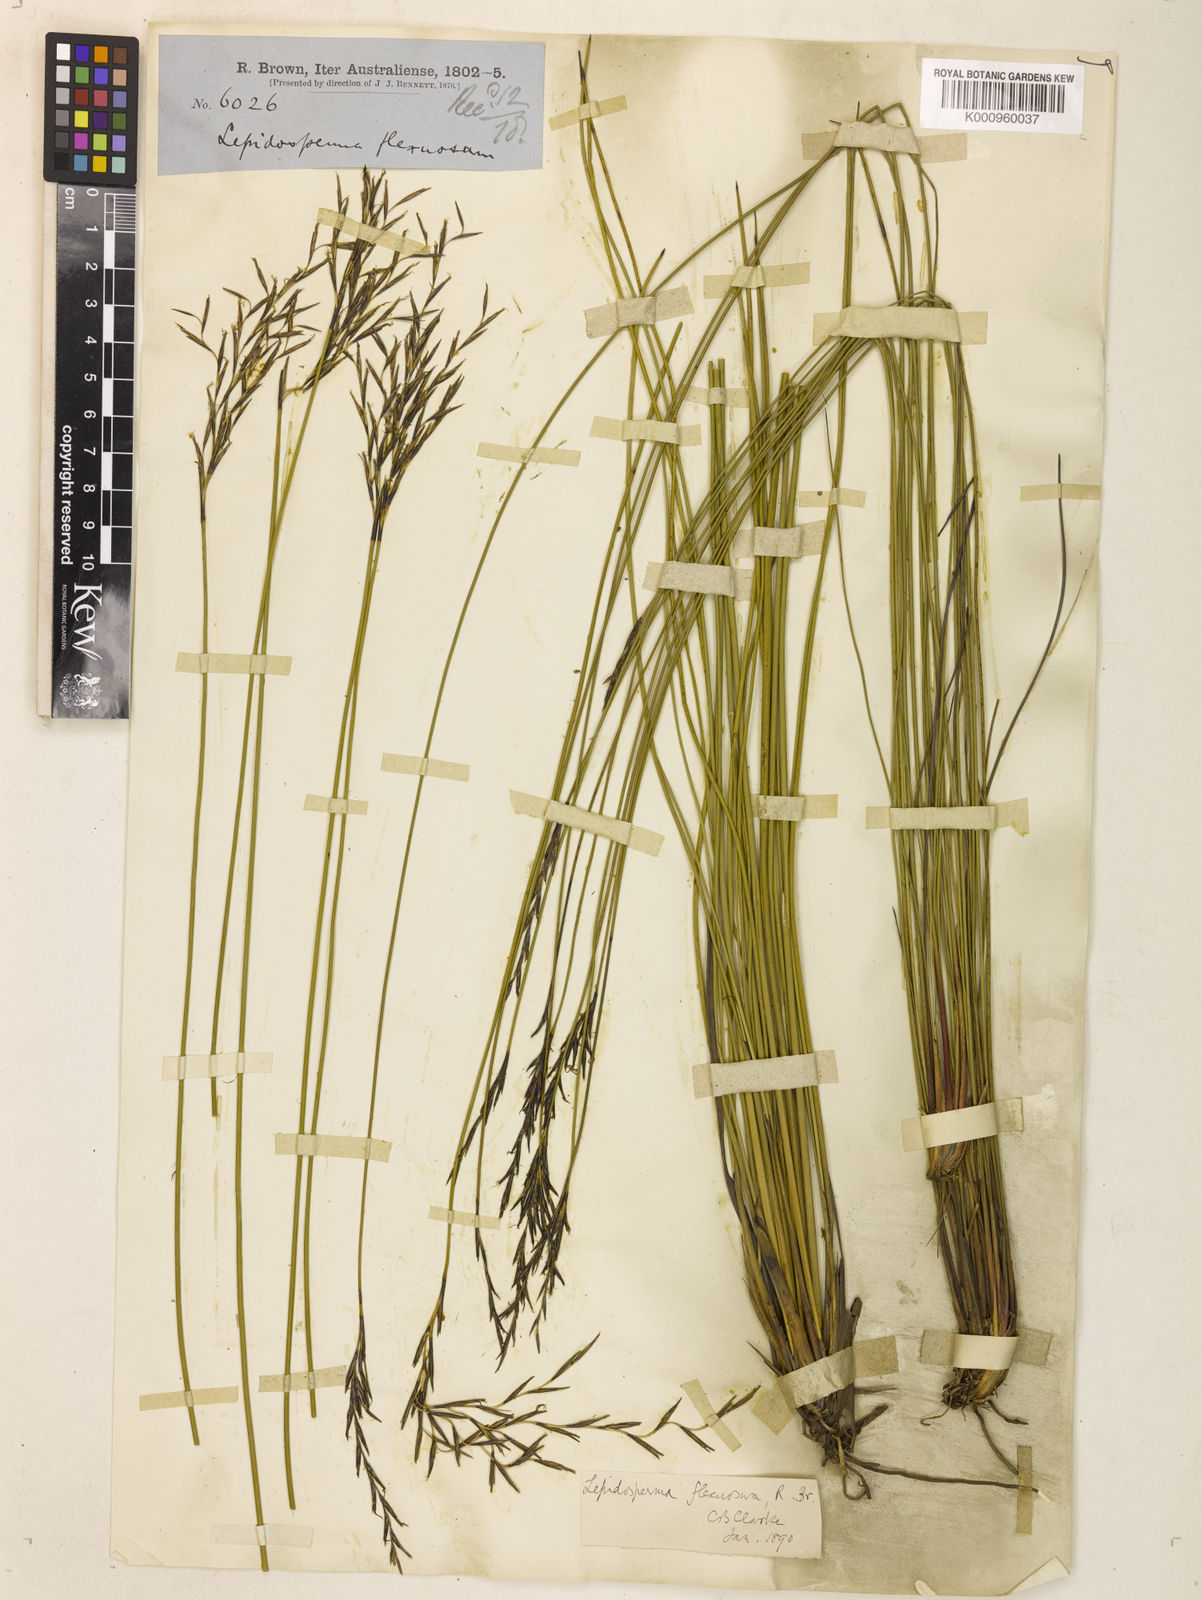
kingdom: Plantae
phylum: Tracheophyta
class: Liliopsida
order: Poales
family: Cyperaceae
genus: Lepidosperma
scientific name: Lepidosperma flexuosum
